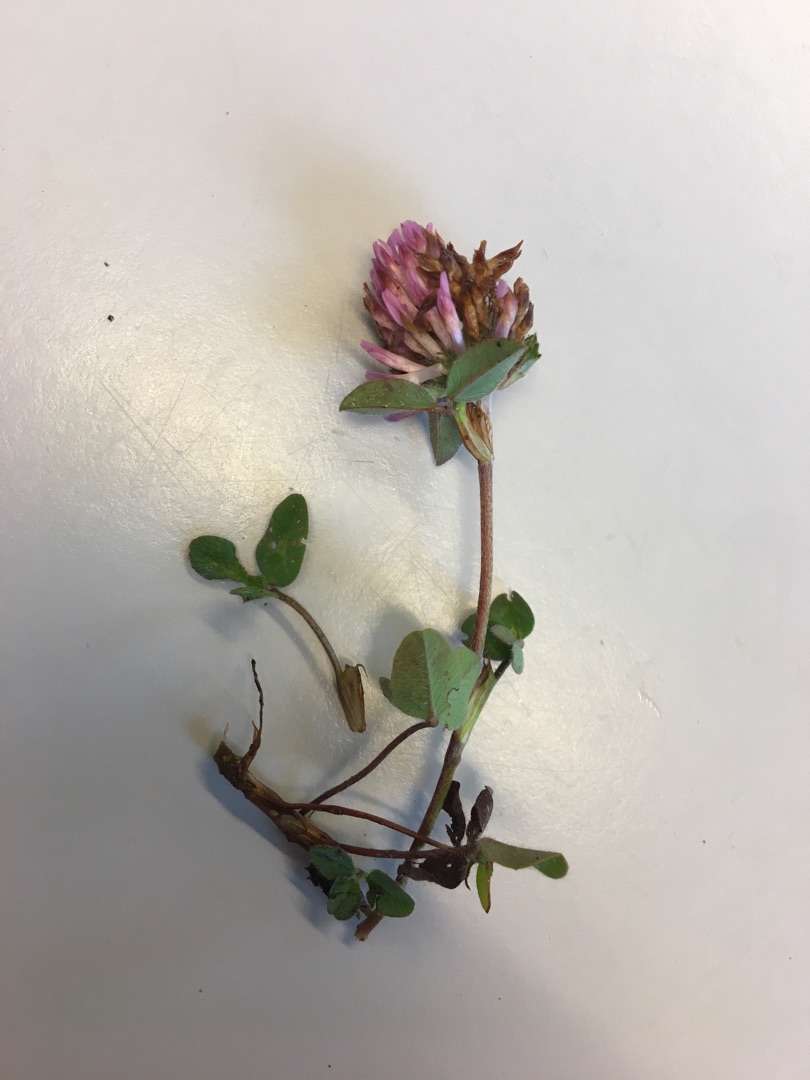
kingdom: Plantae
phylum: Tracheophyta
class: Magnoliopsida
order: Fabales
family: Fabaceae
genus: Trifolium
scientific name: Trifolium pratense
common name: Rød-kløver
